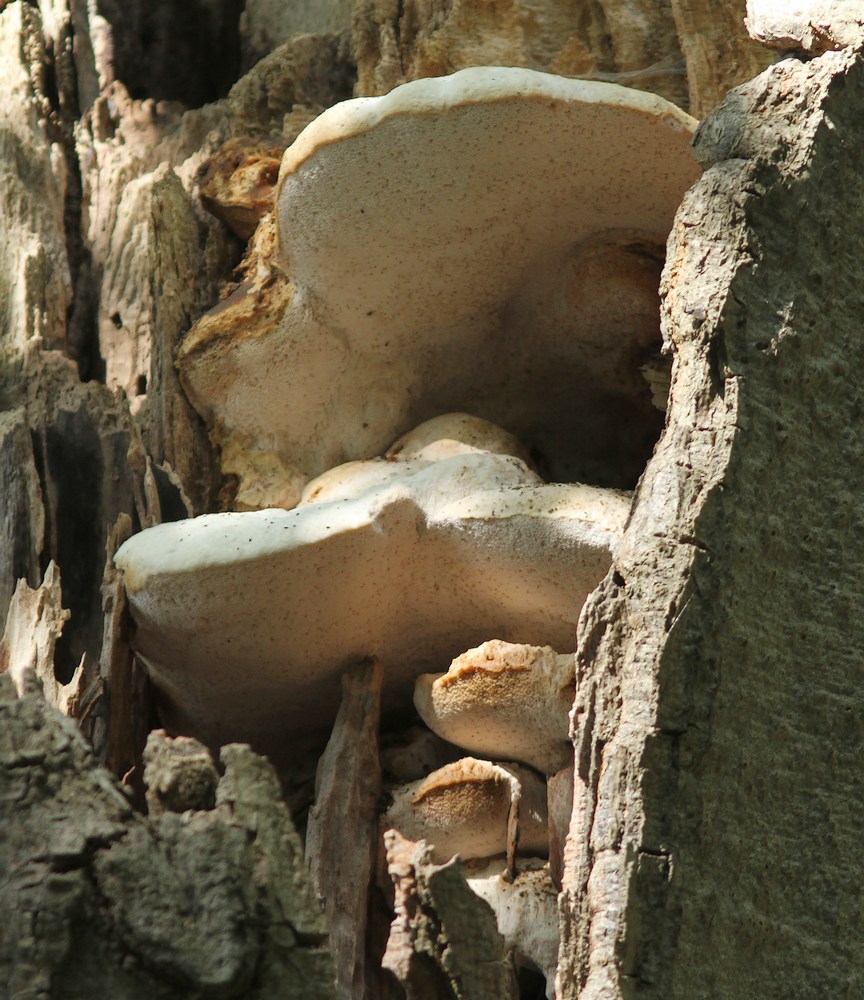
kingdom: Fungi
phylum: Basidiomycota
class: Agaricomycetes
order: Polyporales
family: Meruliaceae
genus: Pappia
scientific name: Pappia fissilis
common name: sej fedtporesvamp
